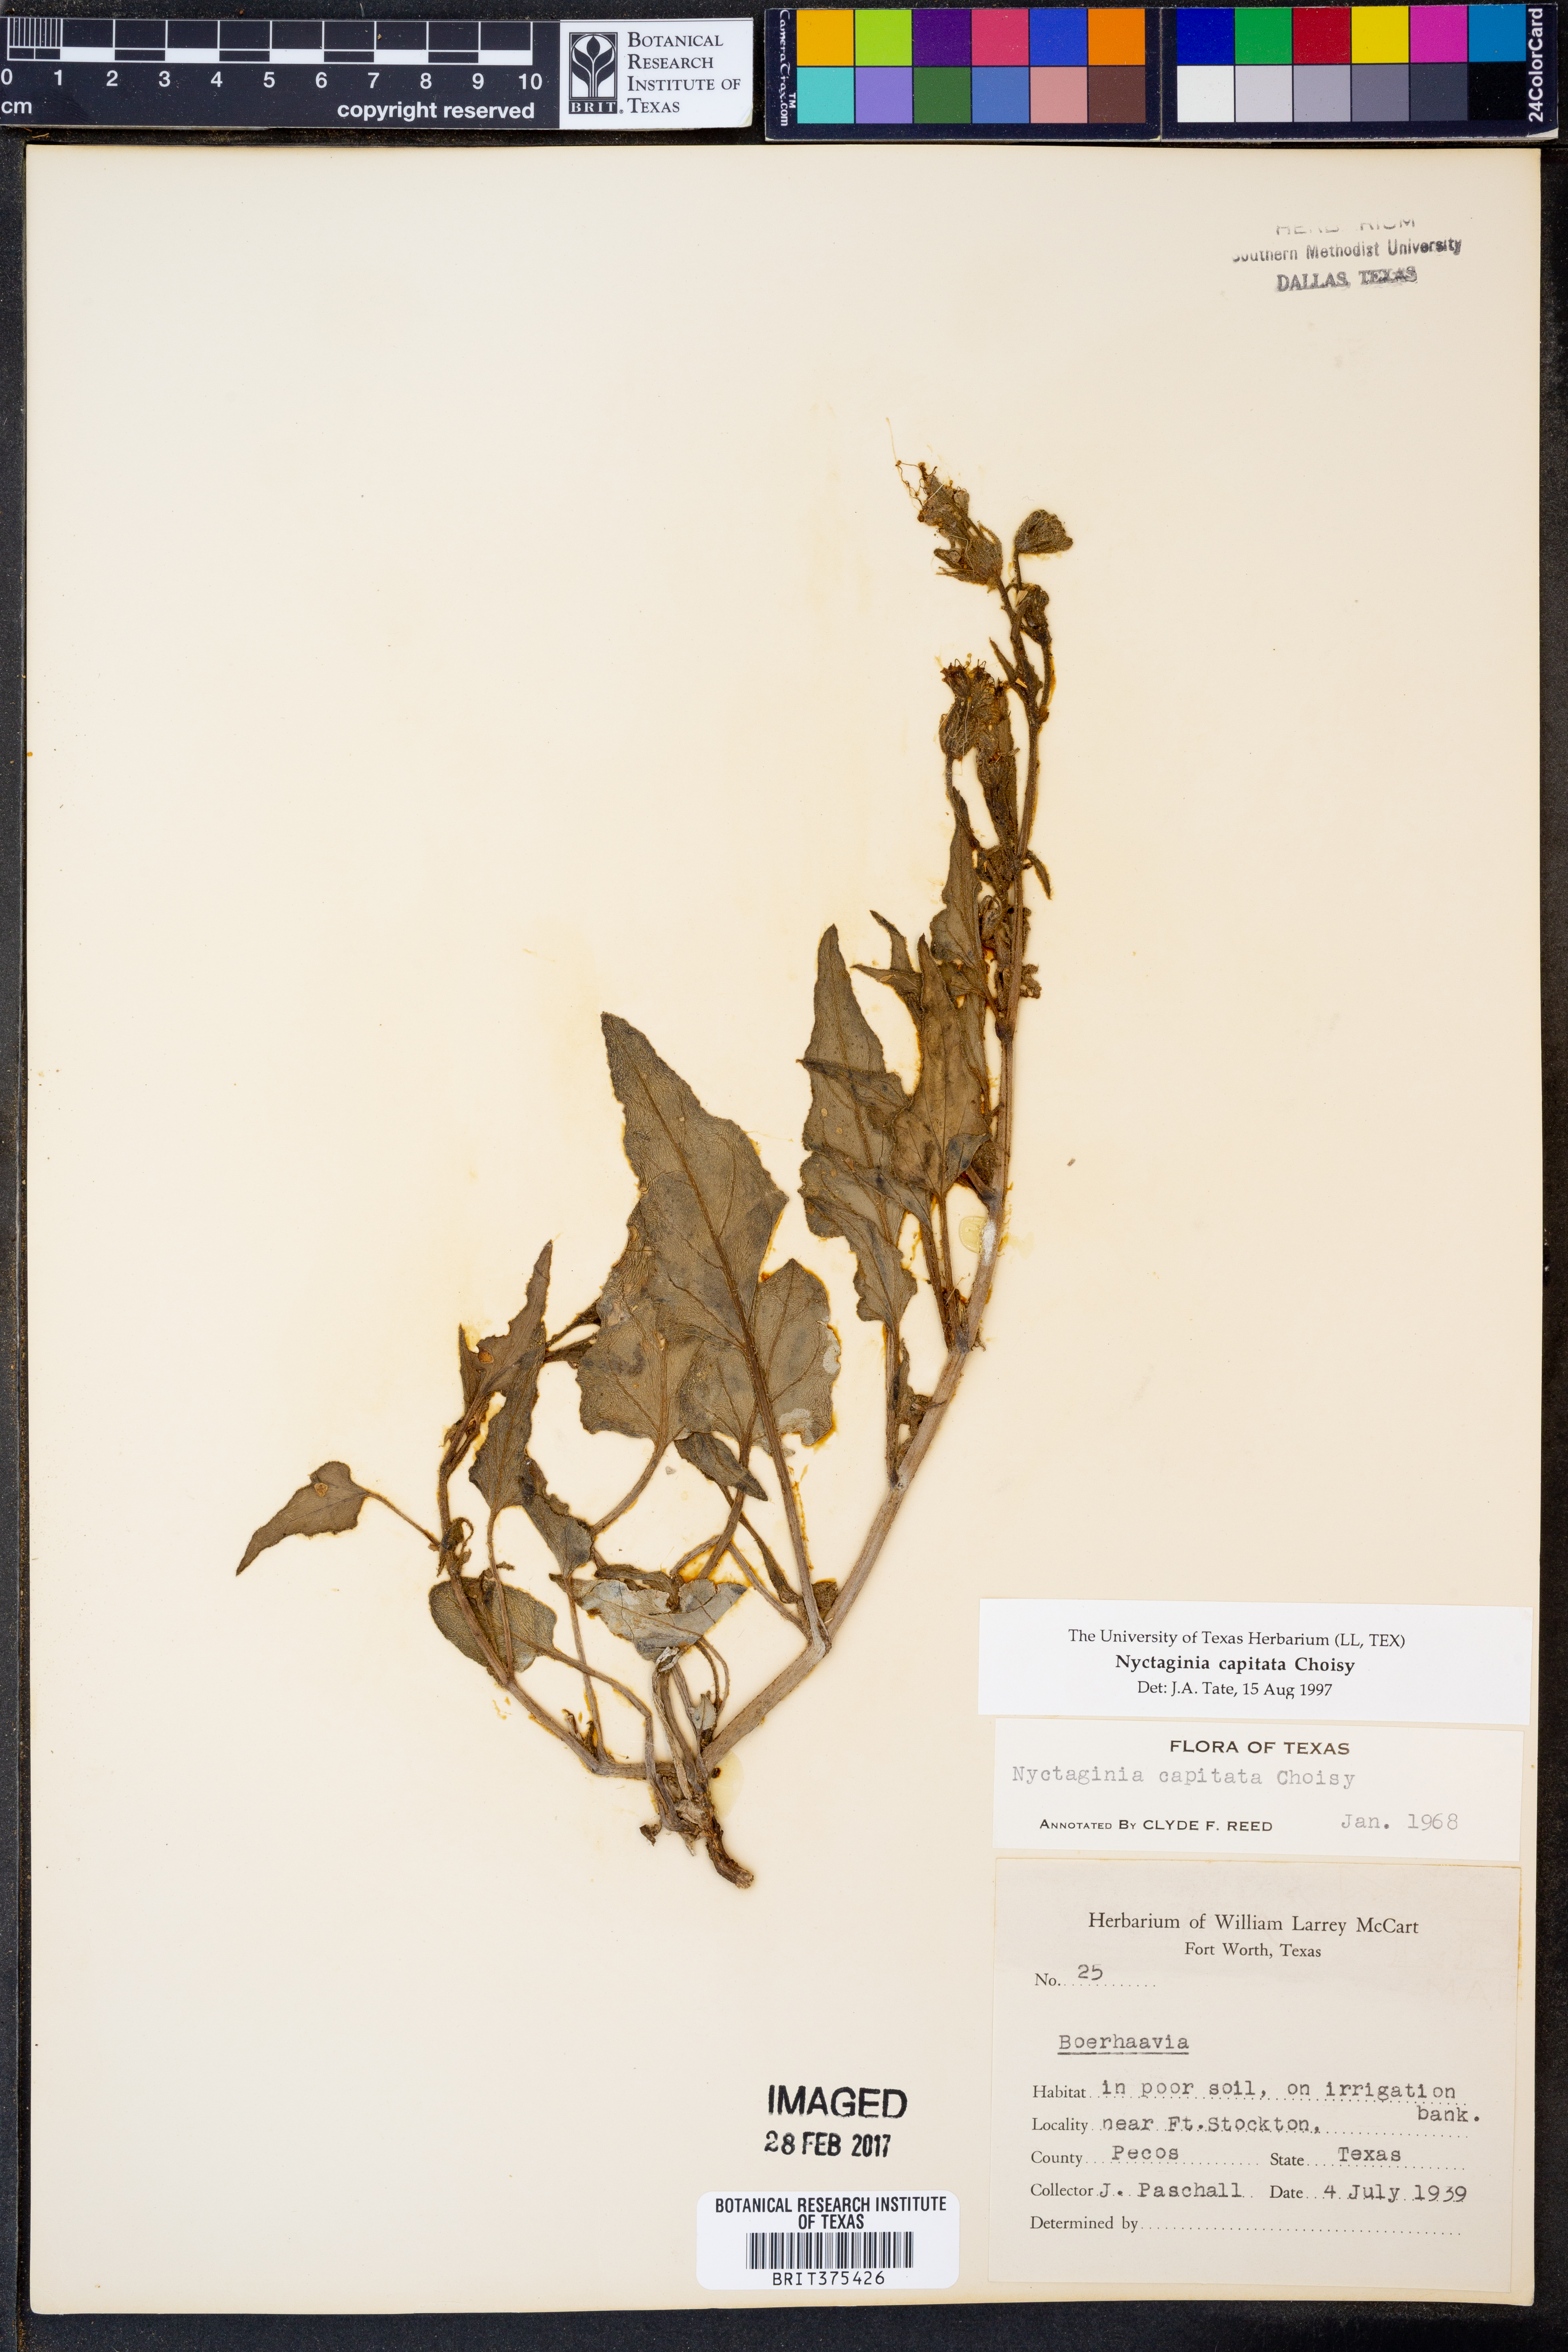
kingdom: Plantae
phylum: Tracheophyta
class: Magnoliopsida
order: Caryophyllales
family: Nyctaginaceae
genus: Nyctaginia
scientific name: Nyctaginia capitata
